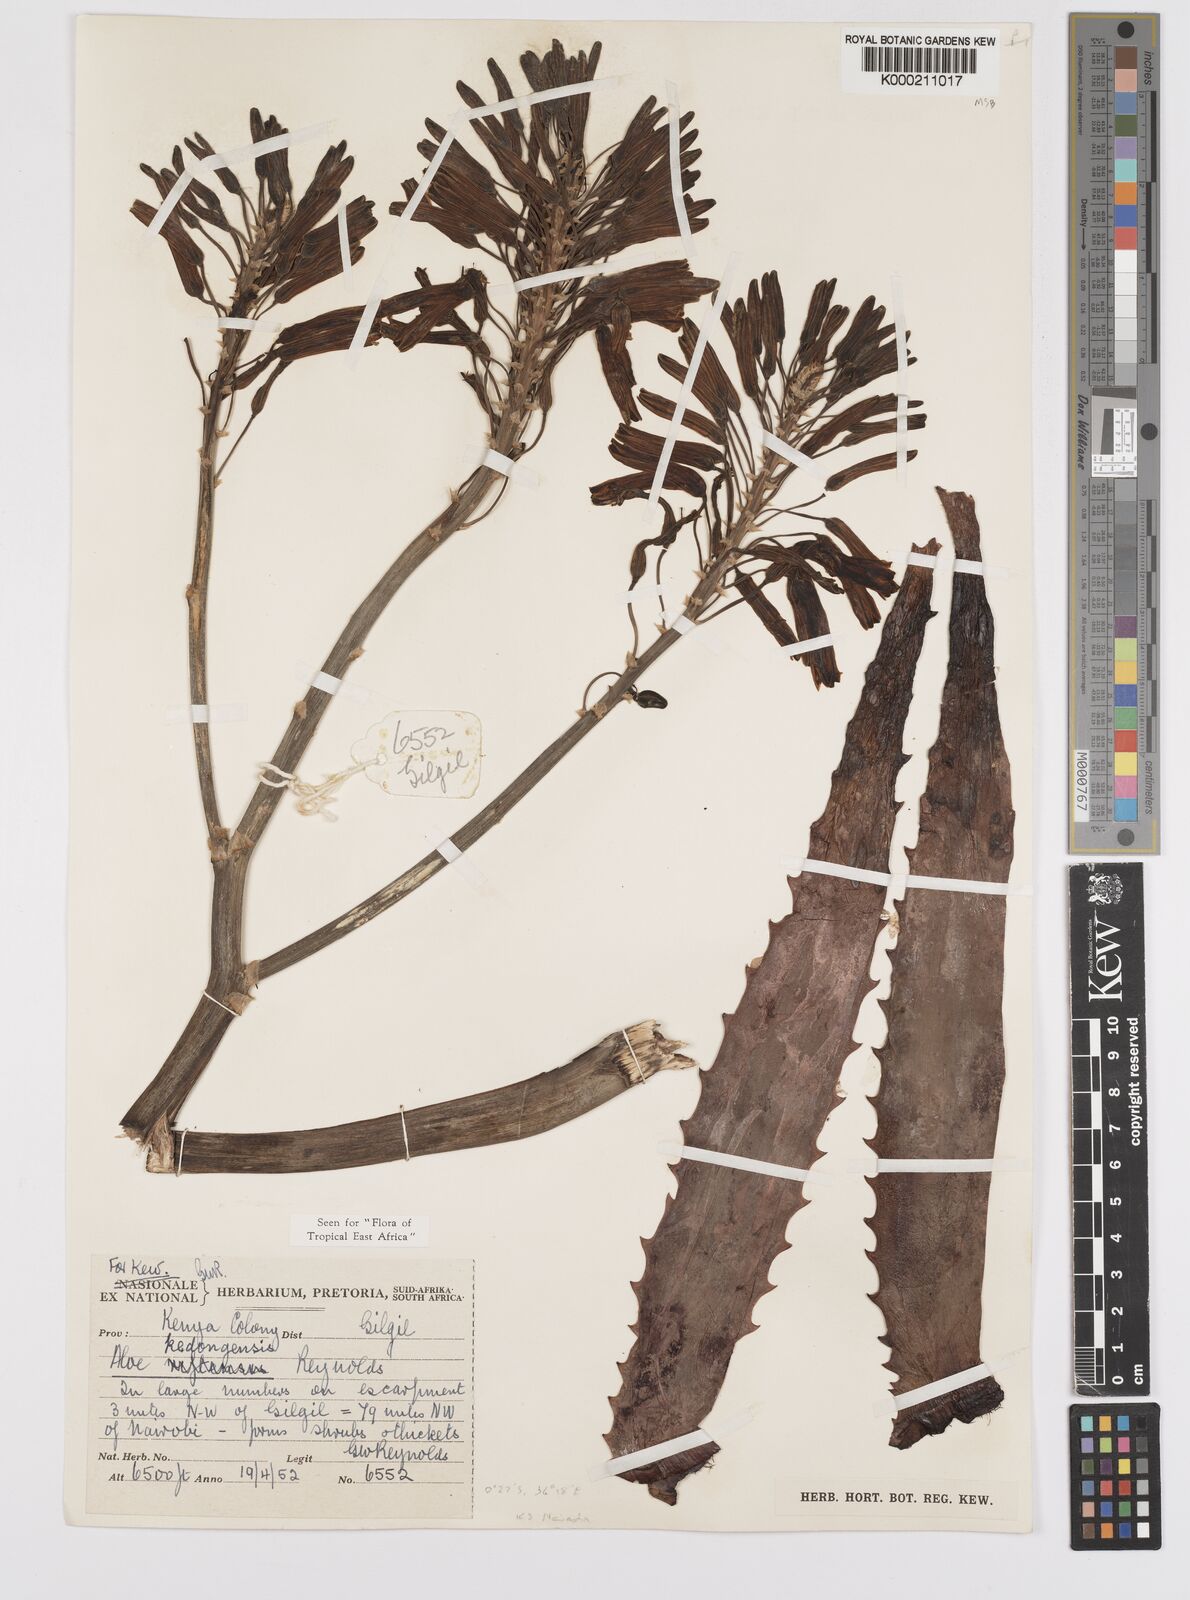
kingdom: Plantae
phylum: Tracheophyta
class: Liliopsida
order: Asparagales
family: Asphodelaceae
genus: Aloe
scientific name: Aloe kedongensis
